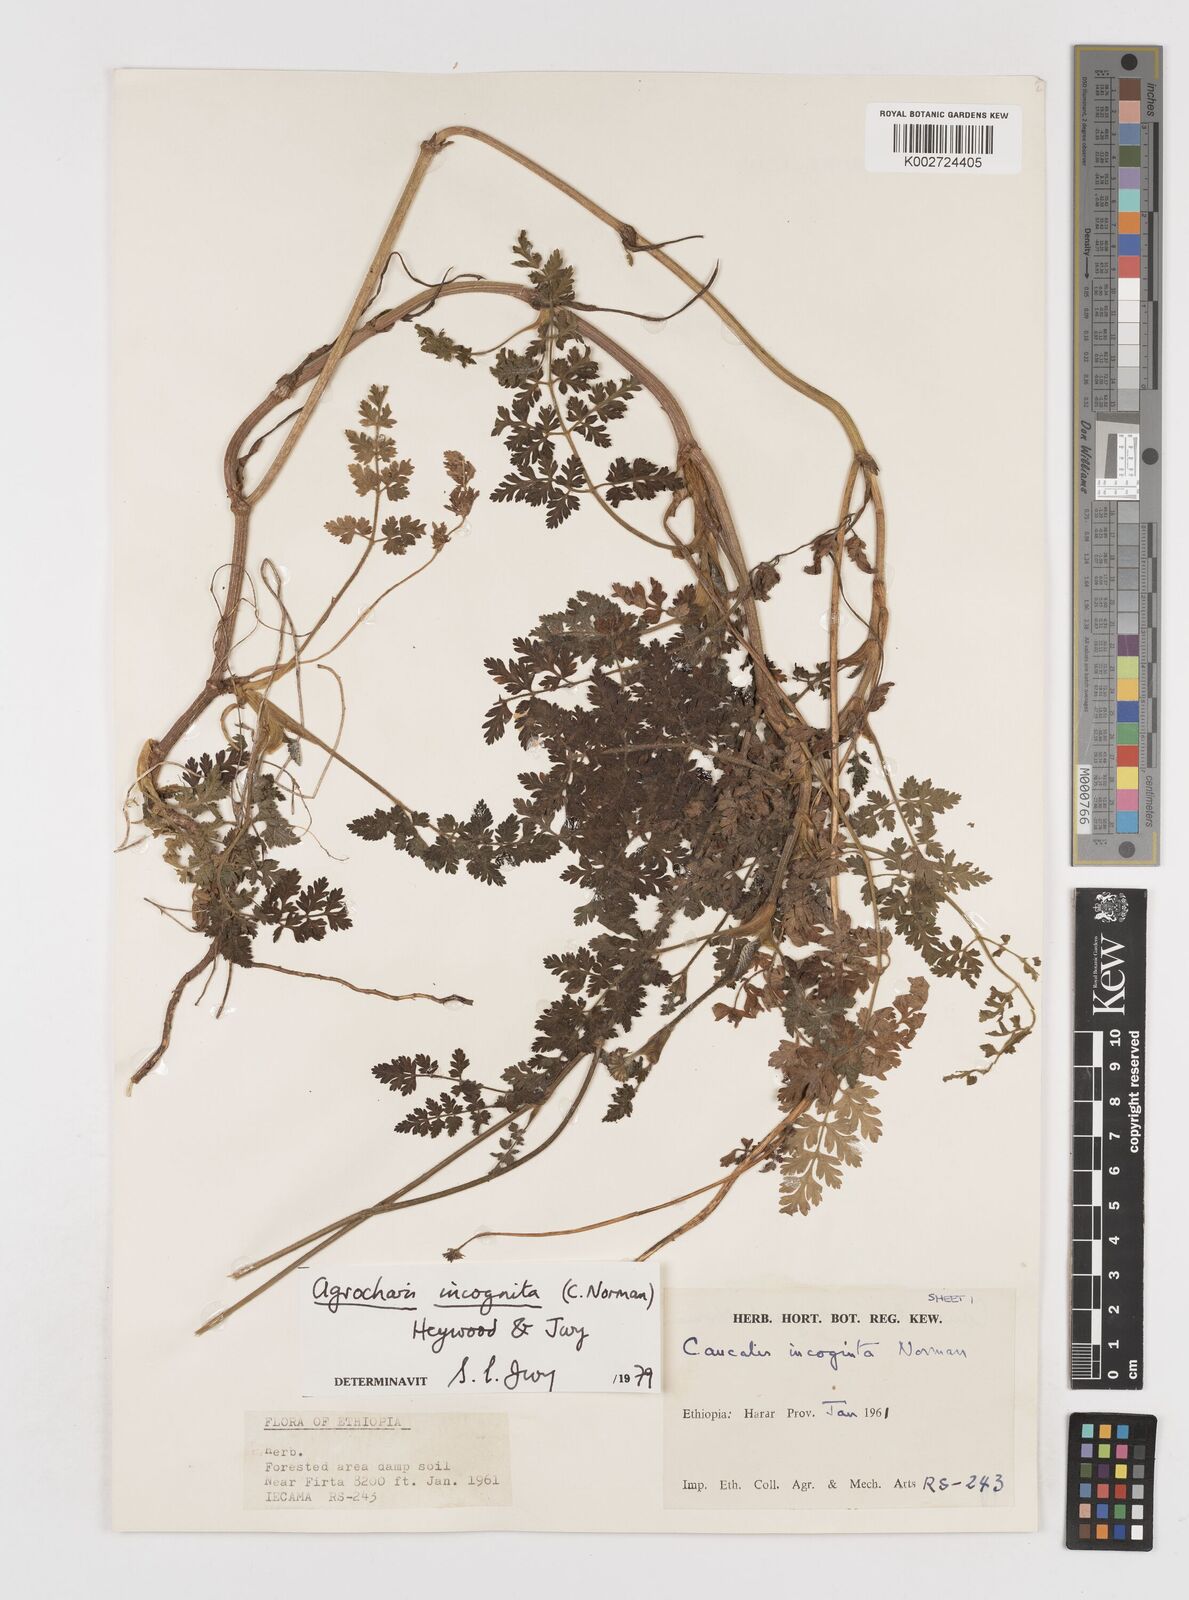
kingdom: Plantae
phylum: Tracheophyta
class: Magnoliopsida
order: Apiales
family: Apiaceae
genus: Daucus
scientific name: Daucus incognitus
